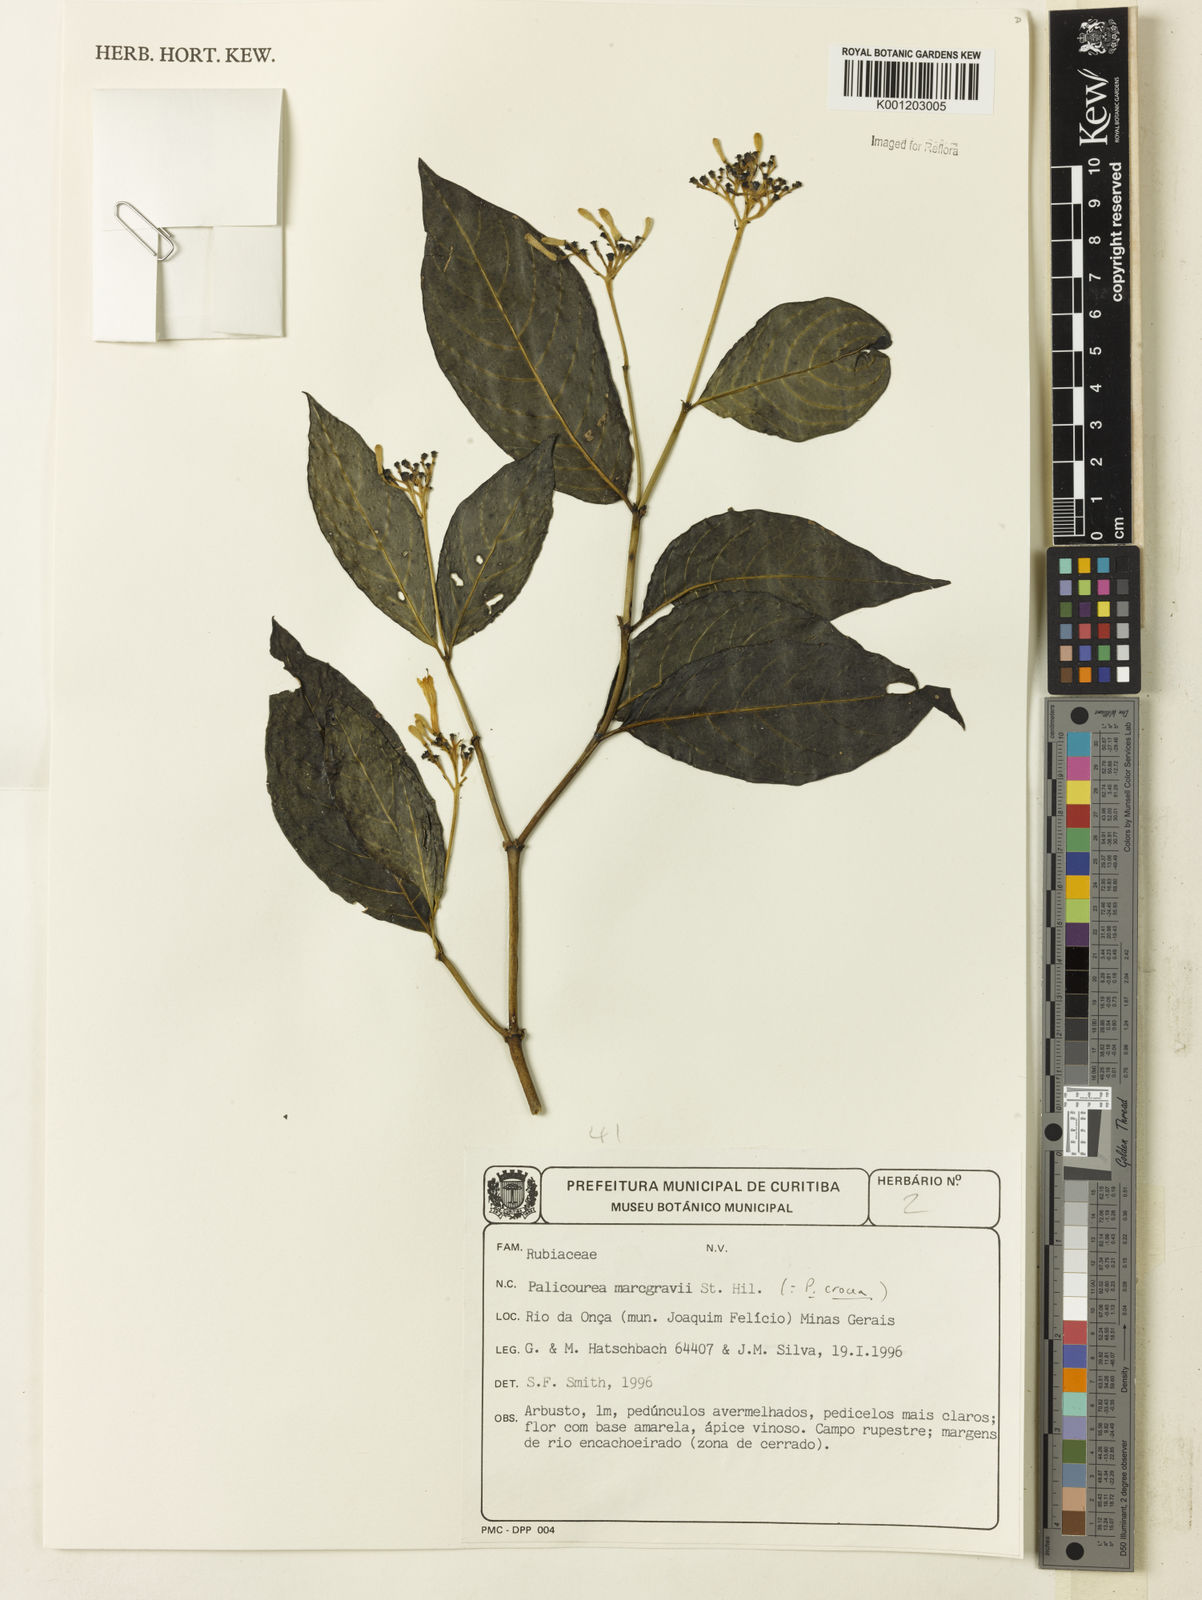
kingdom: Plantae
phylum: Tracheophyta
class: Magnoliopsida
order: Gentianales
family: Rubiaceae
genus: Palicourea
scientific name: Palicourea marcgravii
